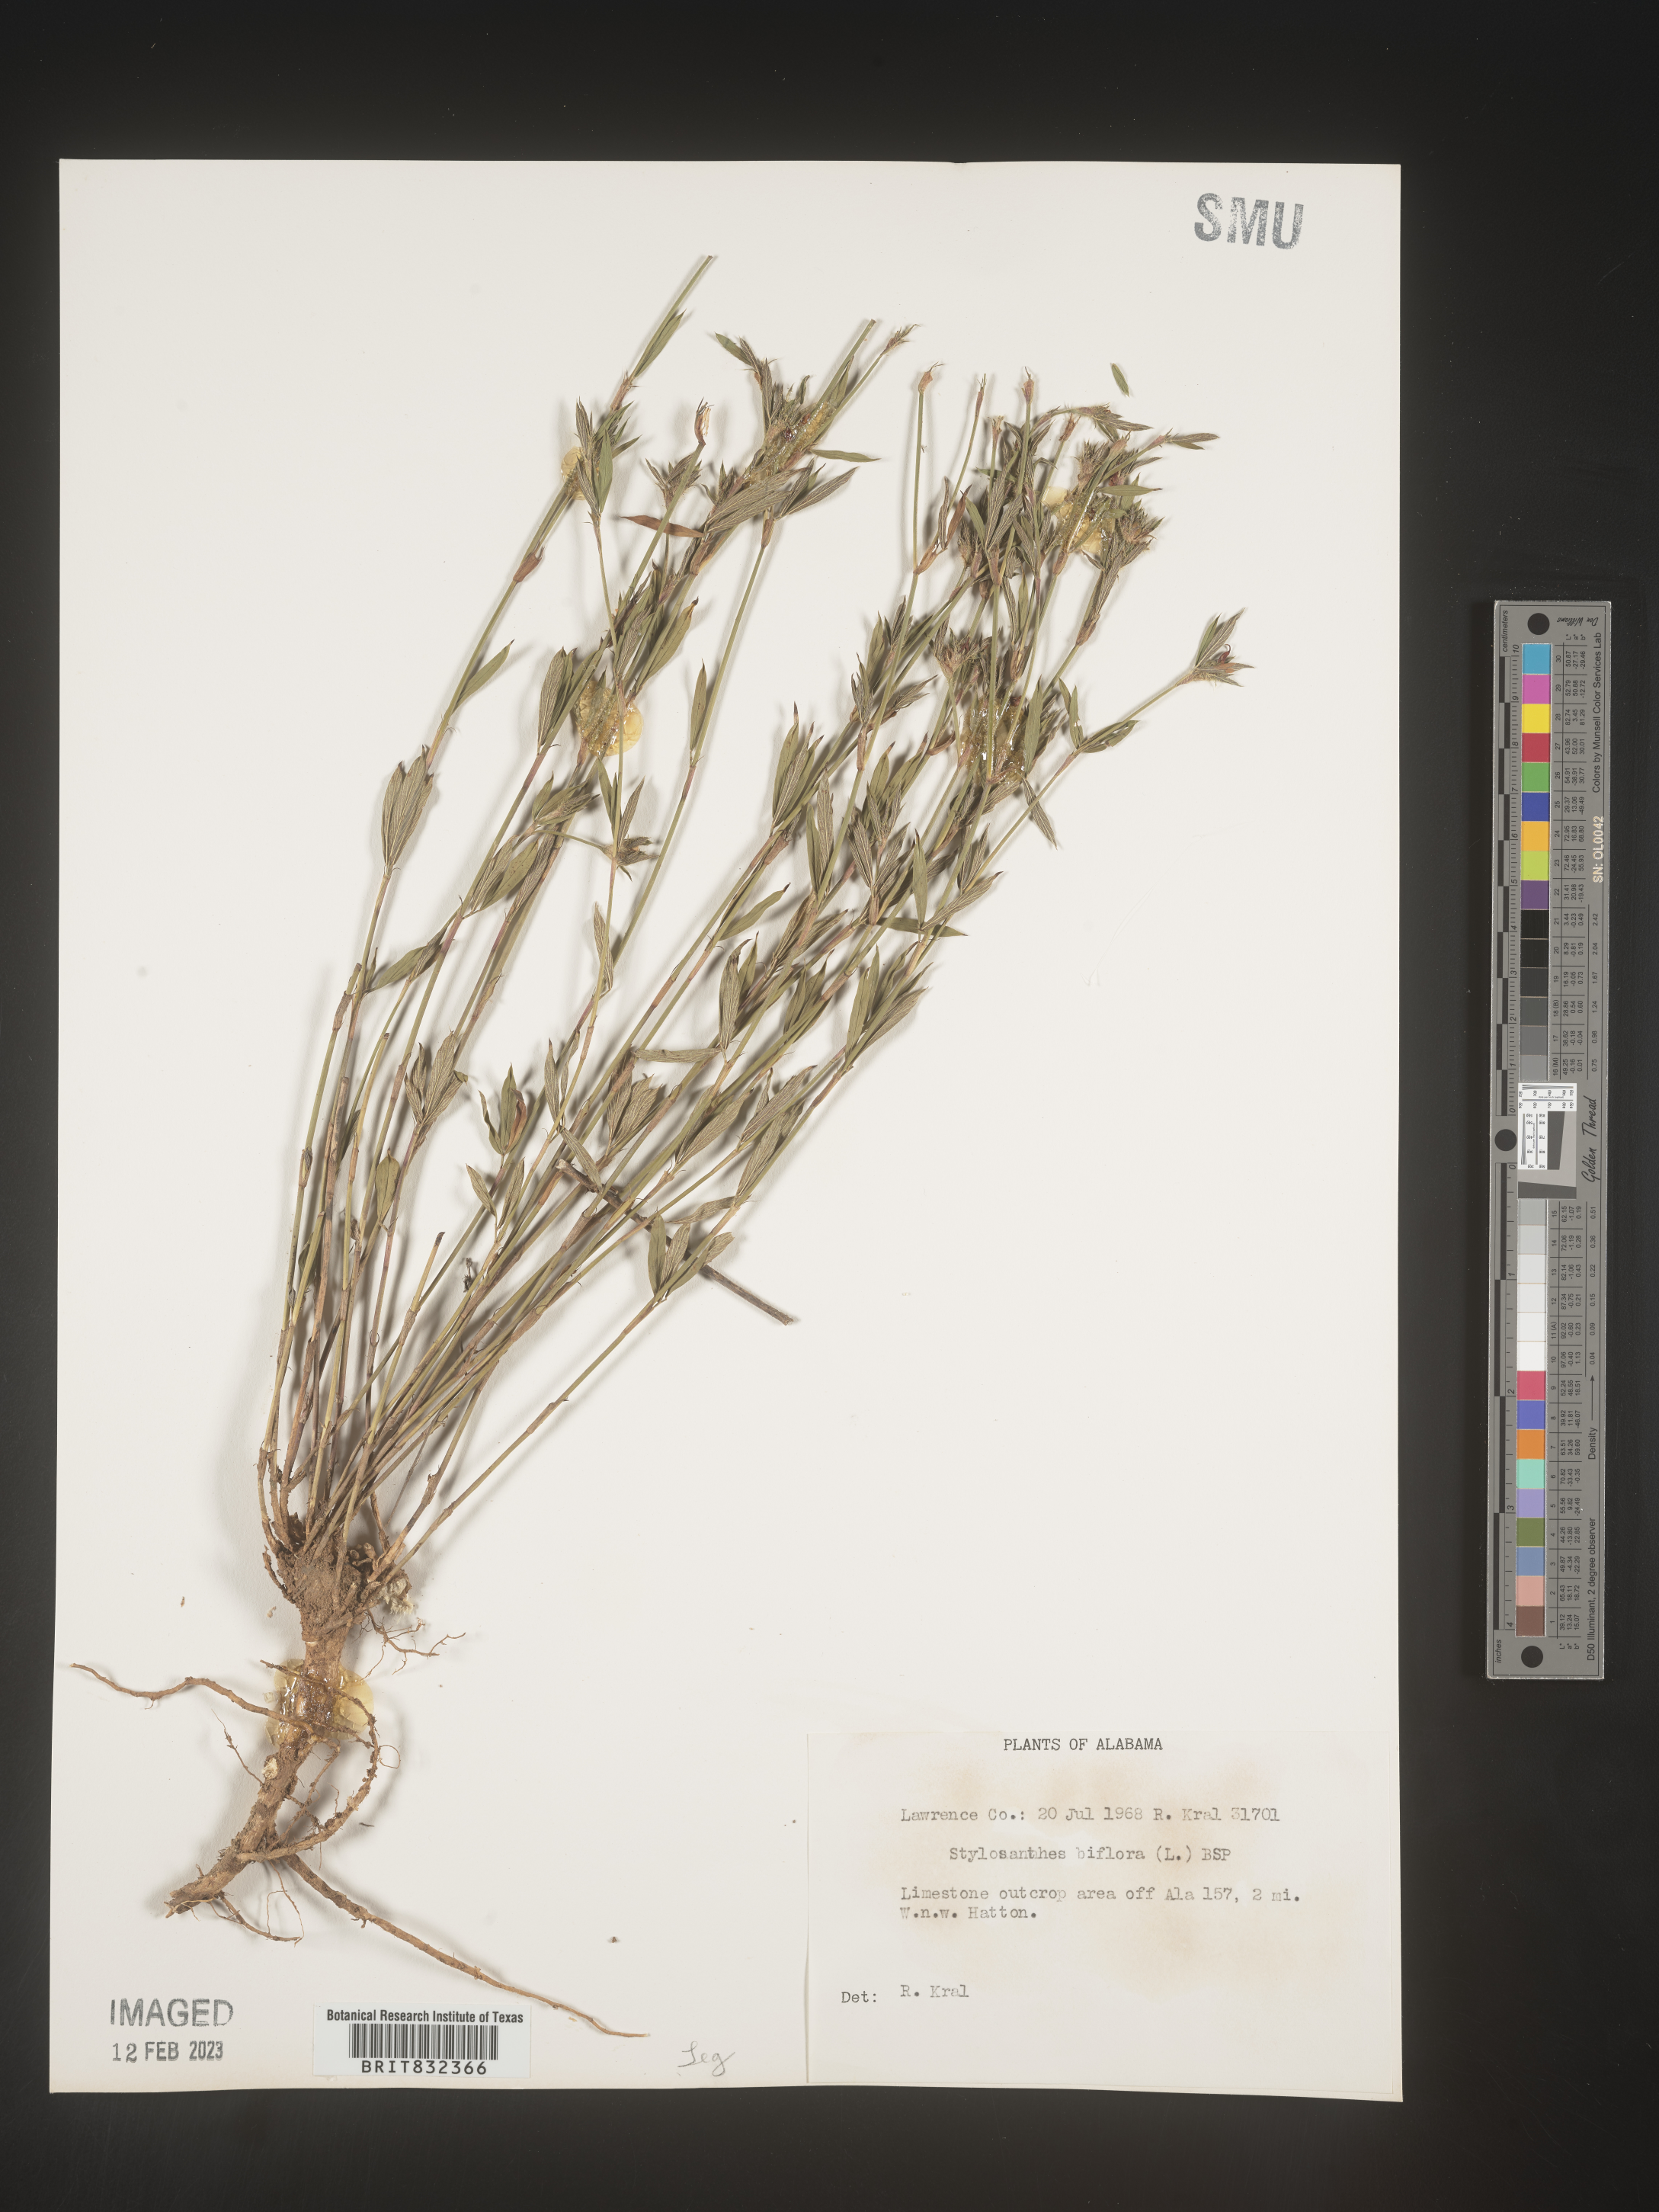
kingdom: Plantae
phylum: Tracheophyta
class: Magnoliopsida
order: Fabales
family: Fabaceae
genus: Stylosanthes
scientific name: Stylosanthes biflora
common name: Two-flower pencil-flower
